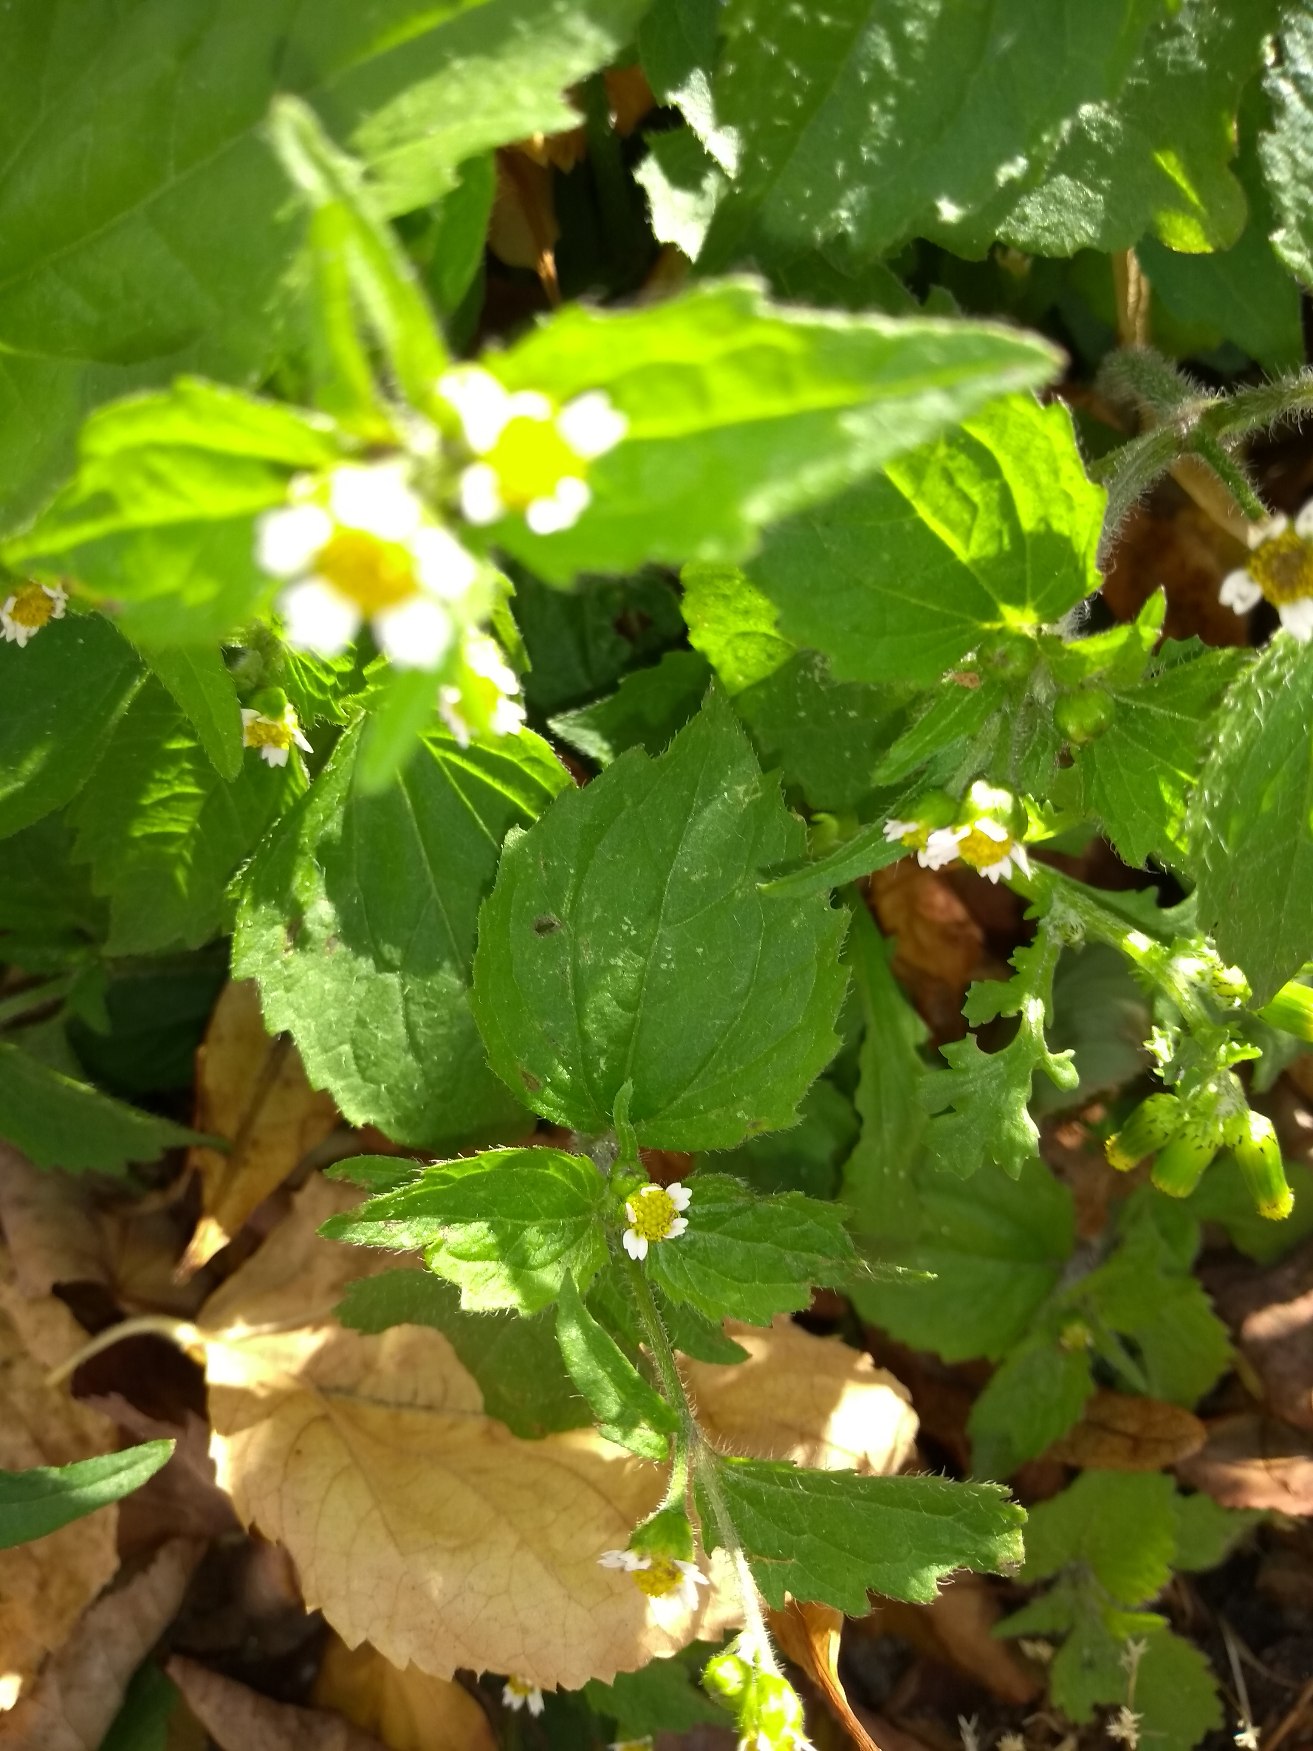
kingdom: Plantae
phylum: Tracheophyta
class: Magnoliopsida
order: Asterales
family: Asteraceae
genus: Galinsoga
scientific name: Galinsoga quadriradiata
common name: Kirtel-kortstråle
